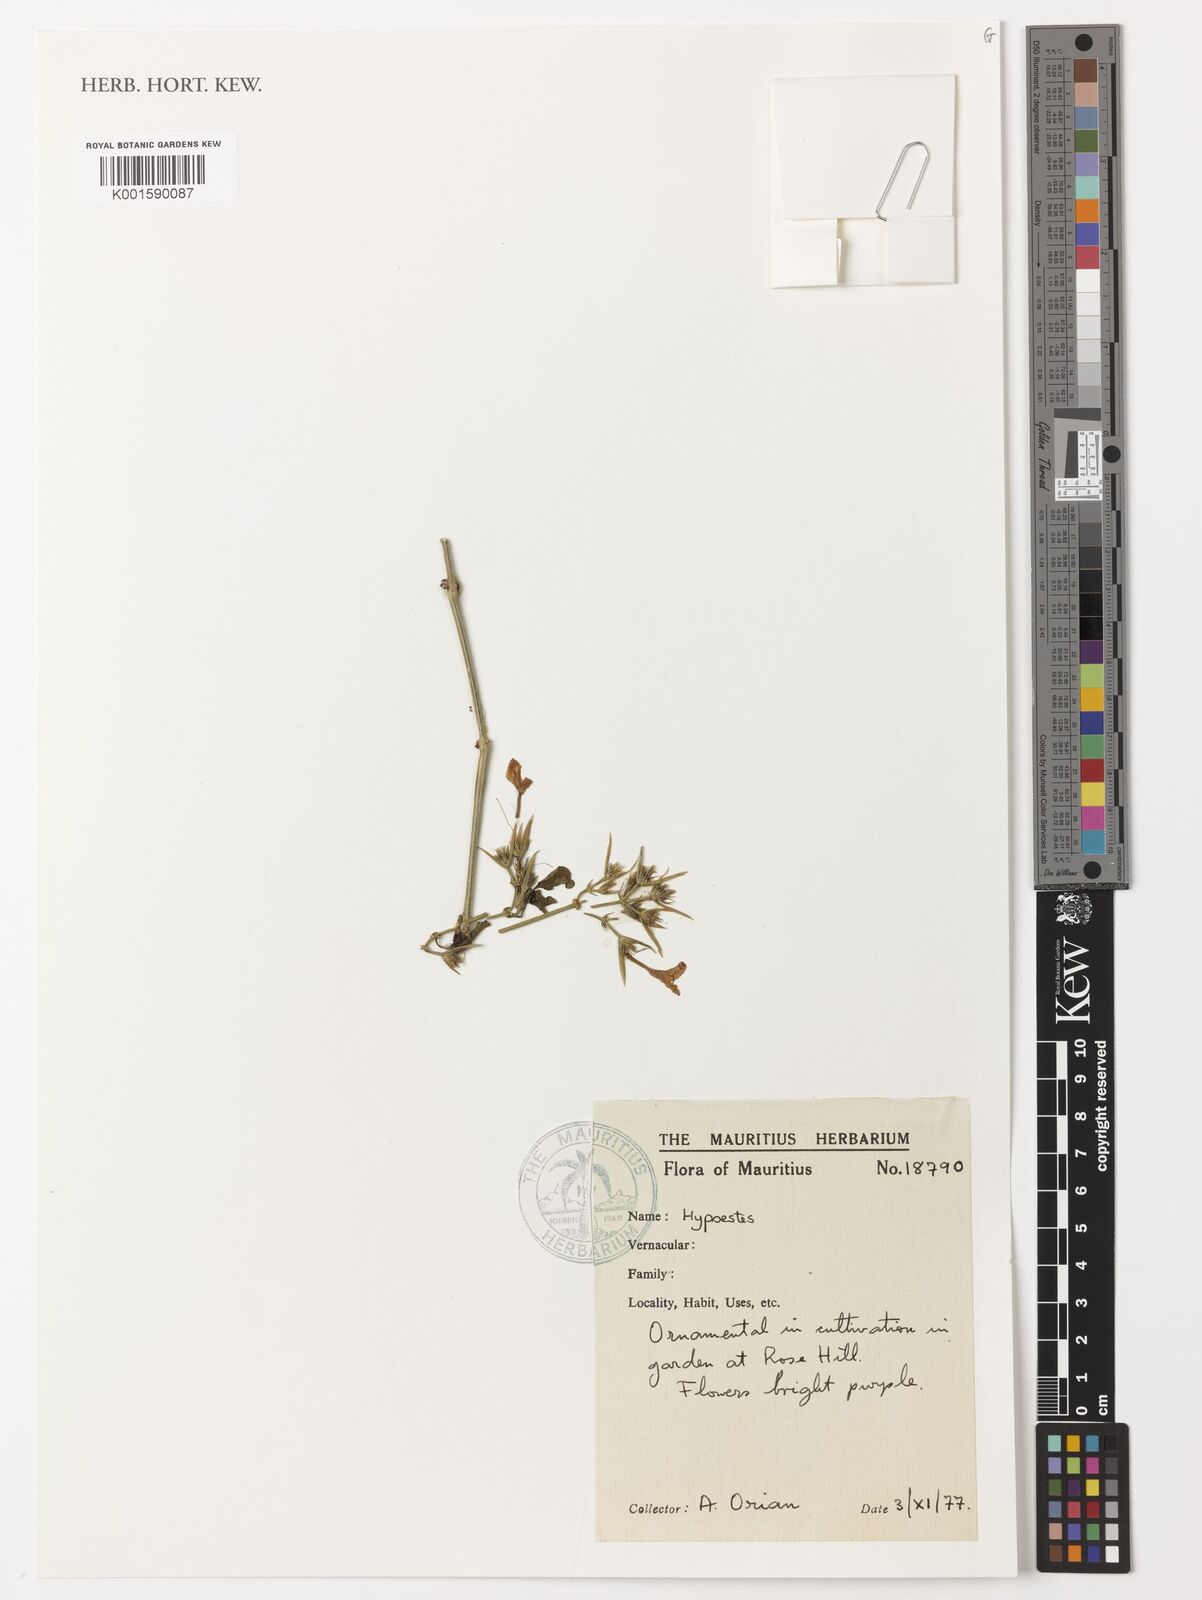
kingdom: Plantae
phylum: Tracheophyta
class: Magnoliopsida
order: Lamiales
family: Acanthaceae
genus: Hypoestes
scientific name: Hypoestes
